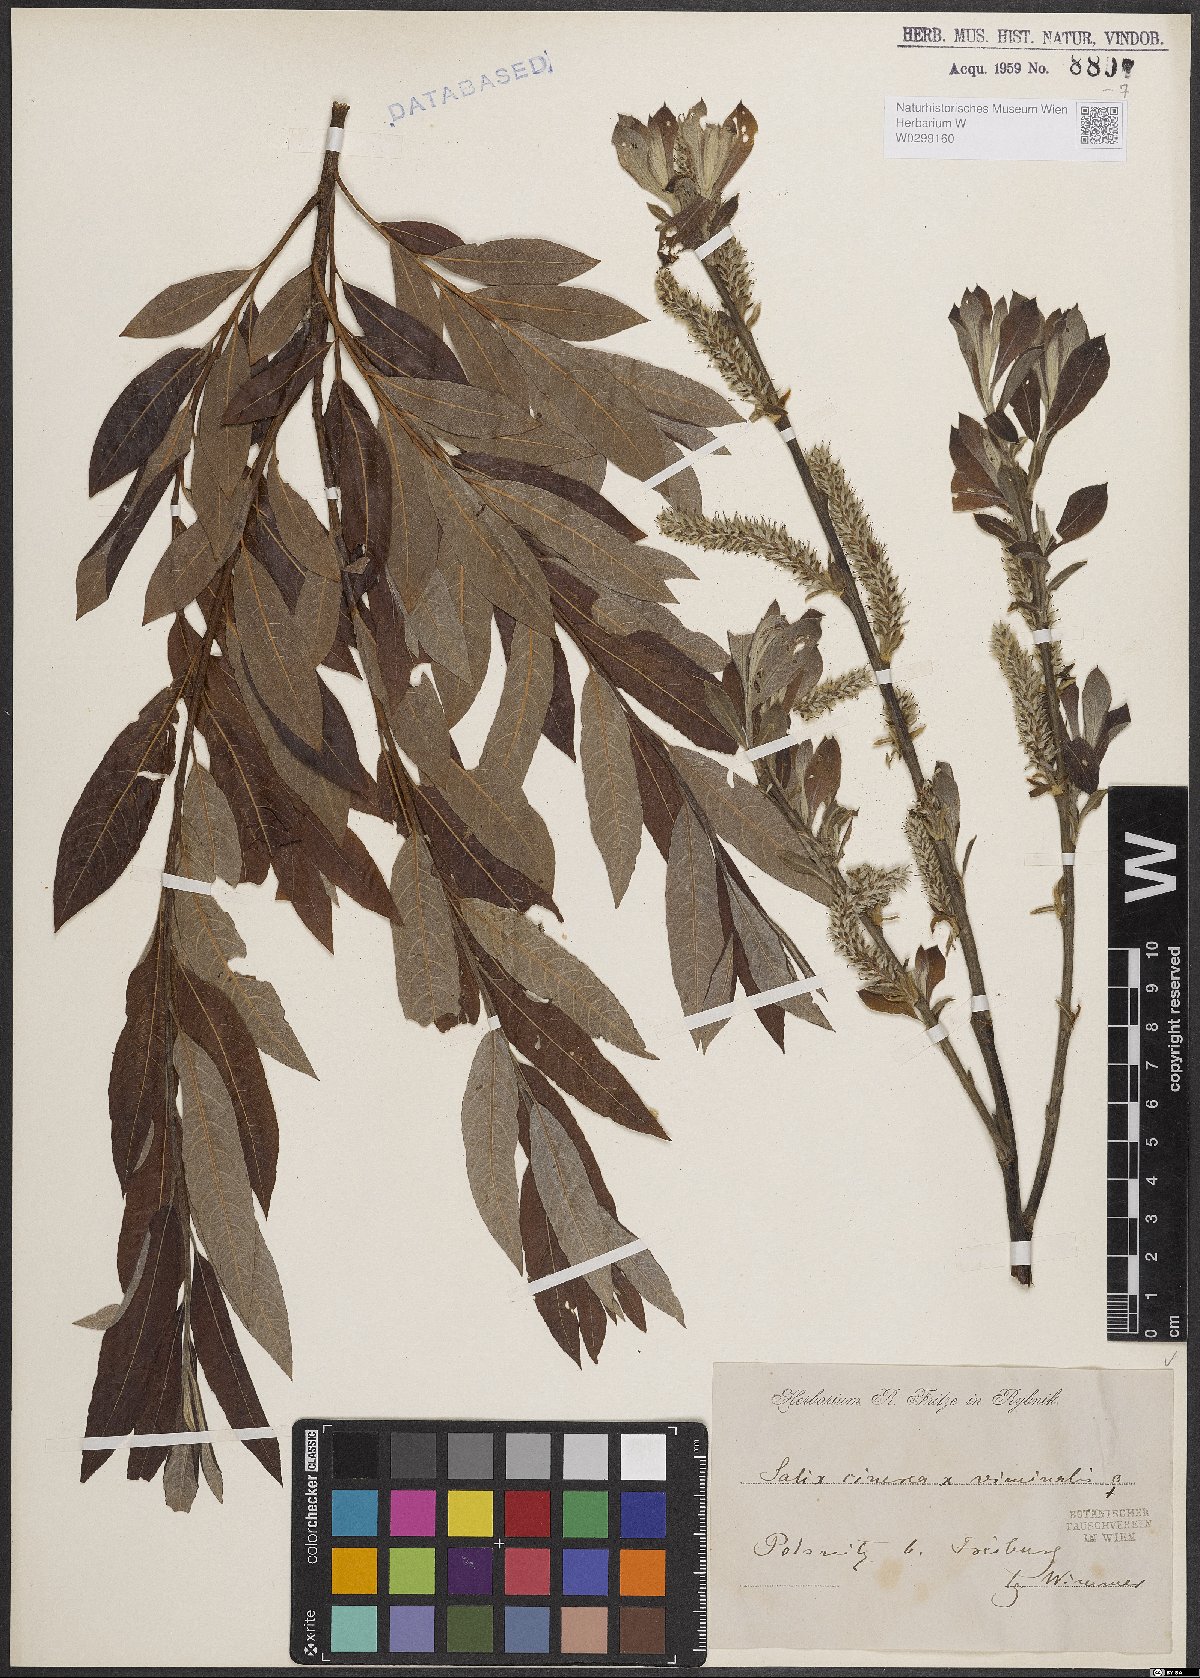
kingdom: Plantae
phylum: Tracheophyta
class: Magnoliopsida
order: Malpighiales
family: Salicaceae
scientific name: Salicaceae
